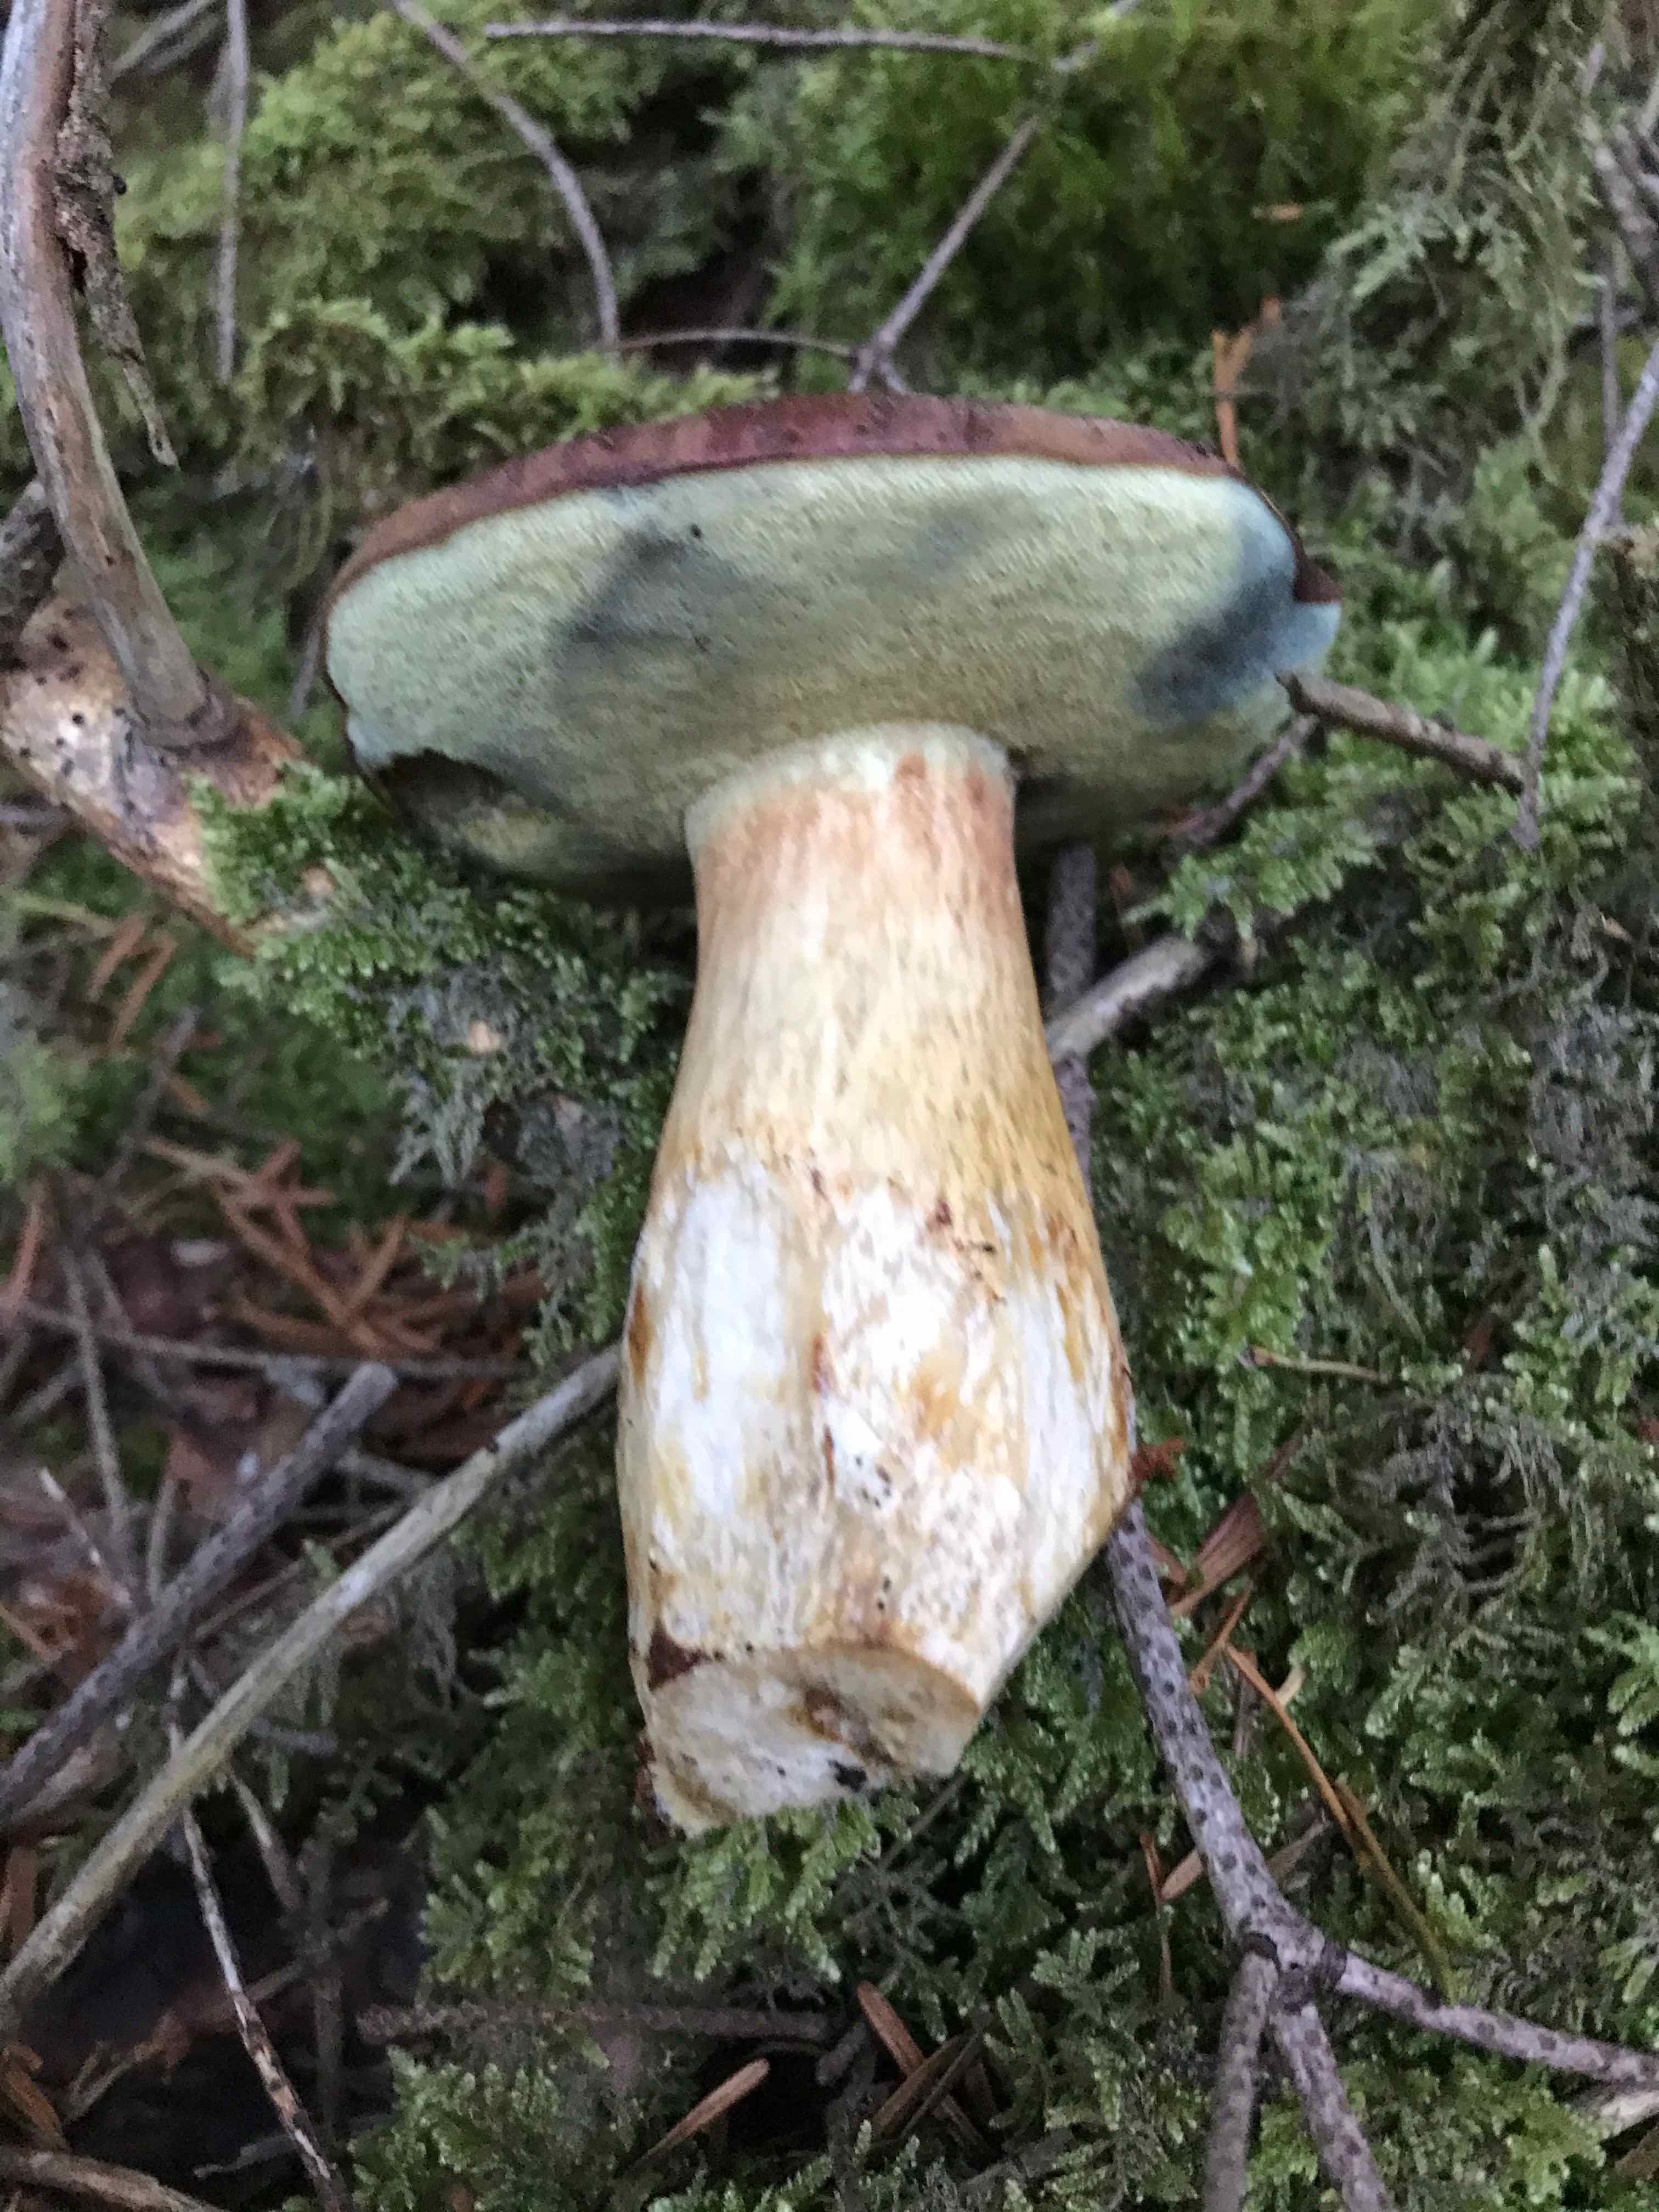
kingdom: Fungi
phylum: Basidiomycota
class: Agaricomycetes
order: Boletales
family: Boletaceae
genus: Imleria
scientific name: Imleria badia
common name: brunstokket rørhat
